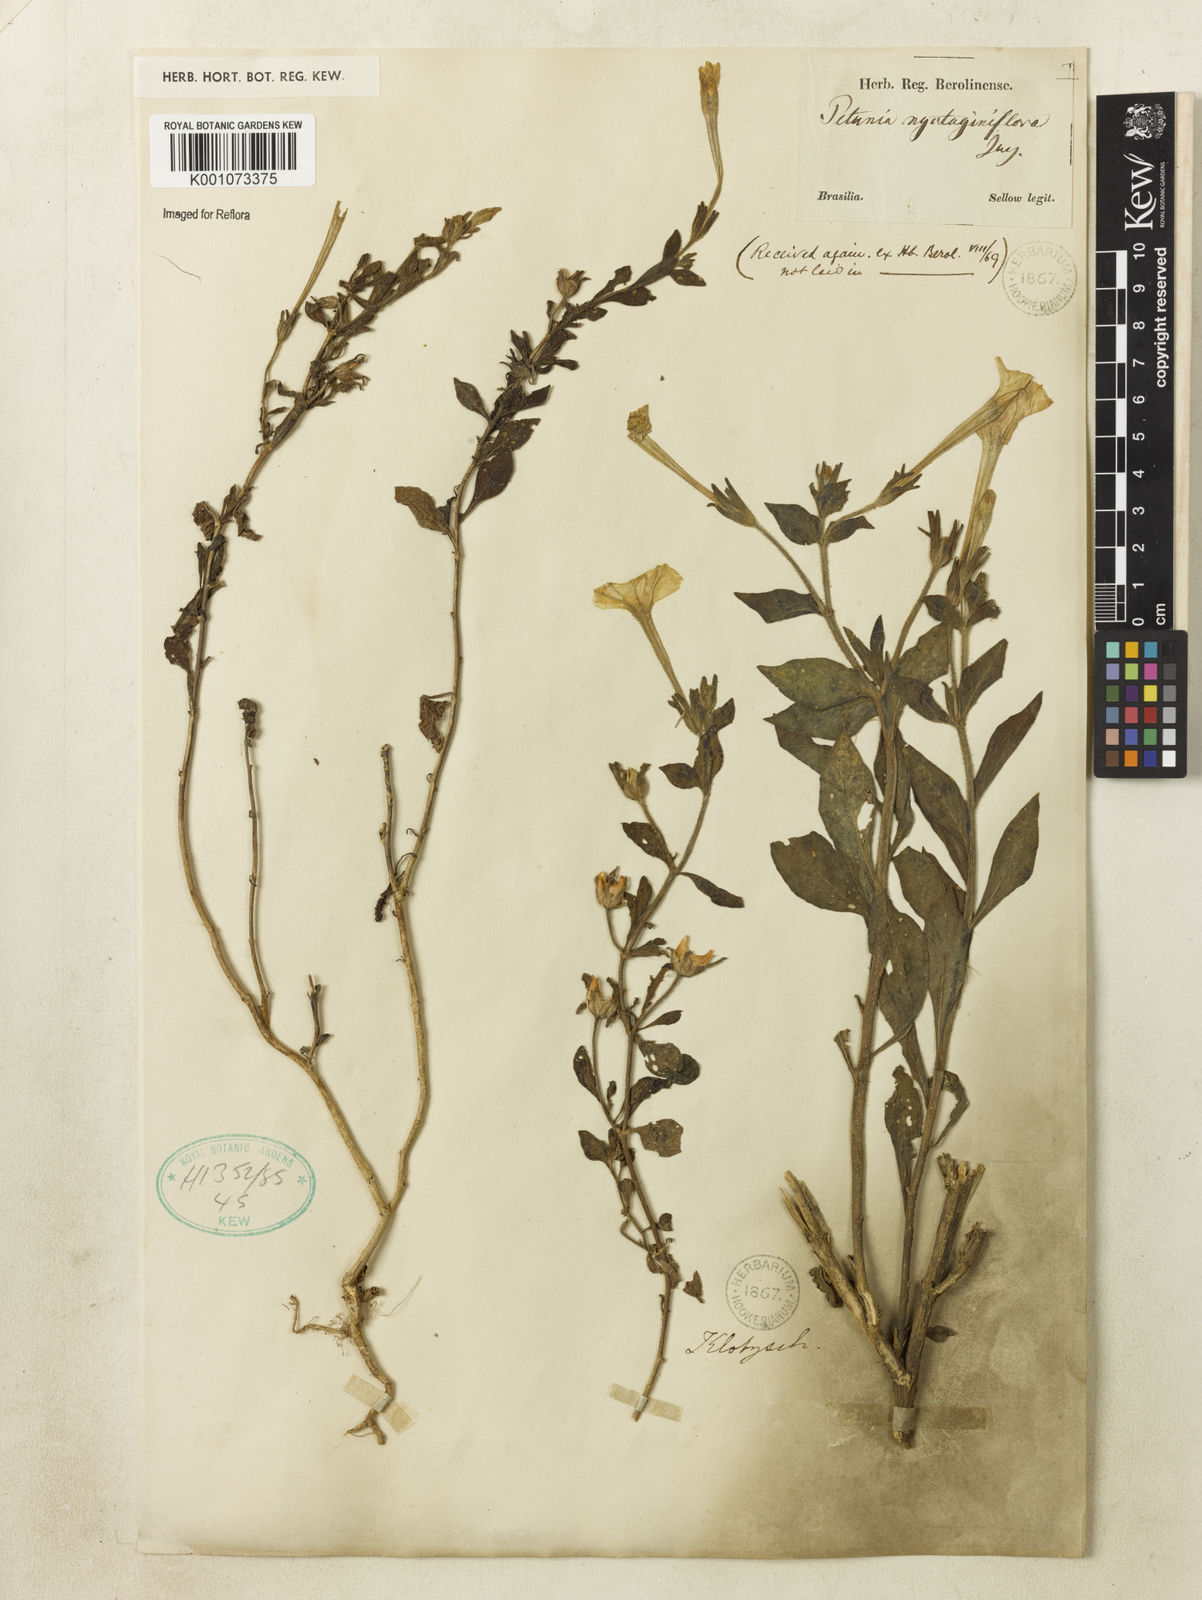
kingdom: Plantae
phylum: Tracheophyta
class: Magnoliopsida
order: Solanales
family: Solanaceae
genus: Petunia
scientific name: Petunia axillaris
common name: Large white petunia
